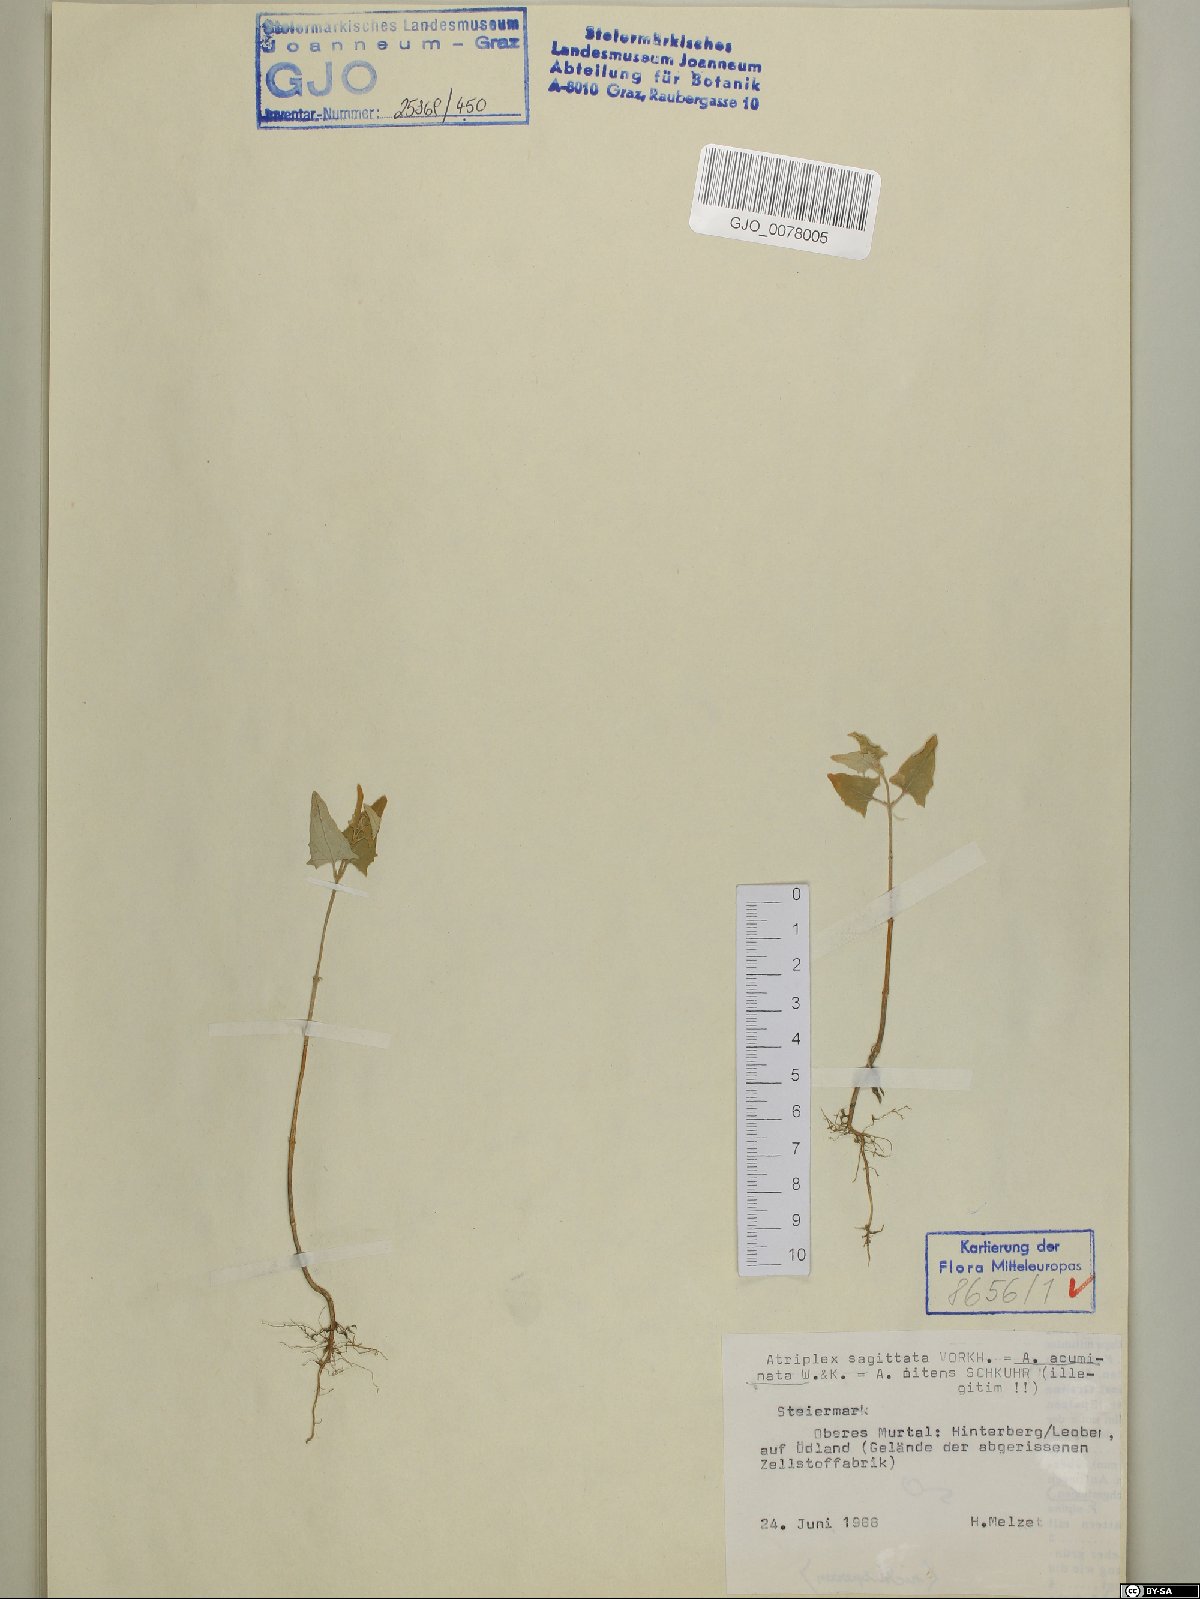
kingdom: Plantae
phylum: Tracheophyta
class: Magnoliopsida
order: Caryophyllales
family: Amaranthaceae
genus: Atriplex
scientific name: Atriplex sagittata
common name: Purple orache
